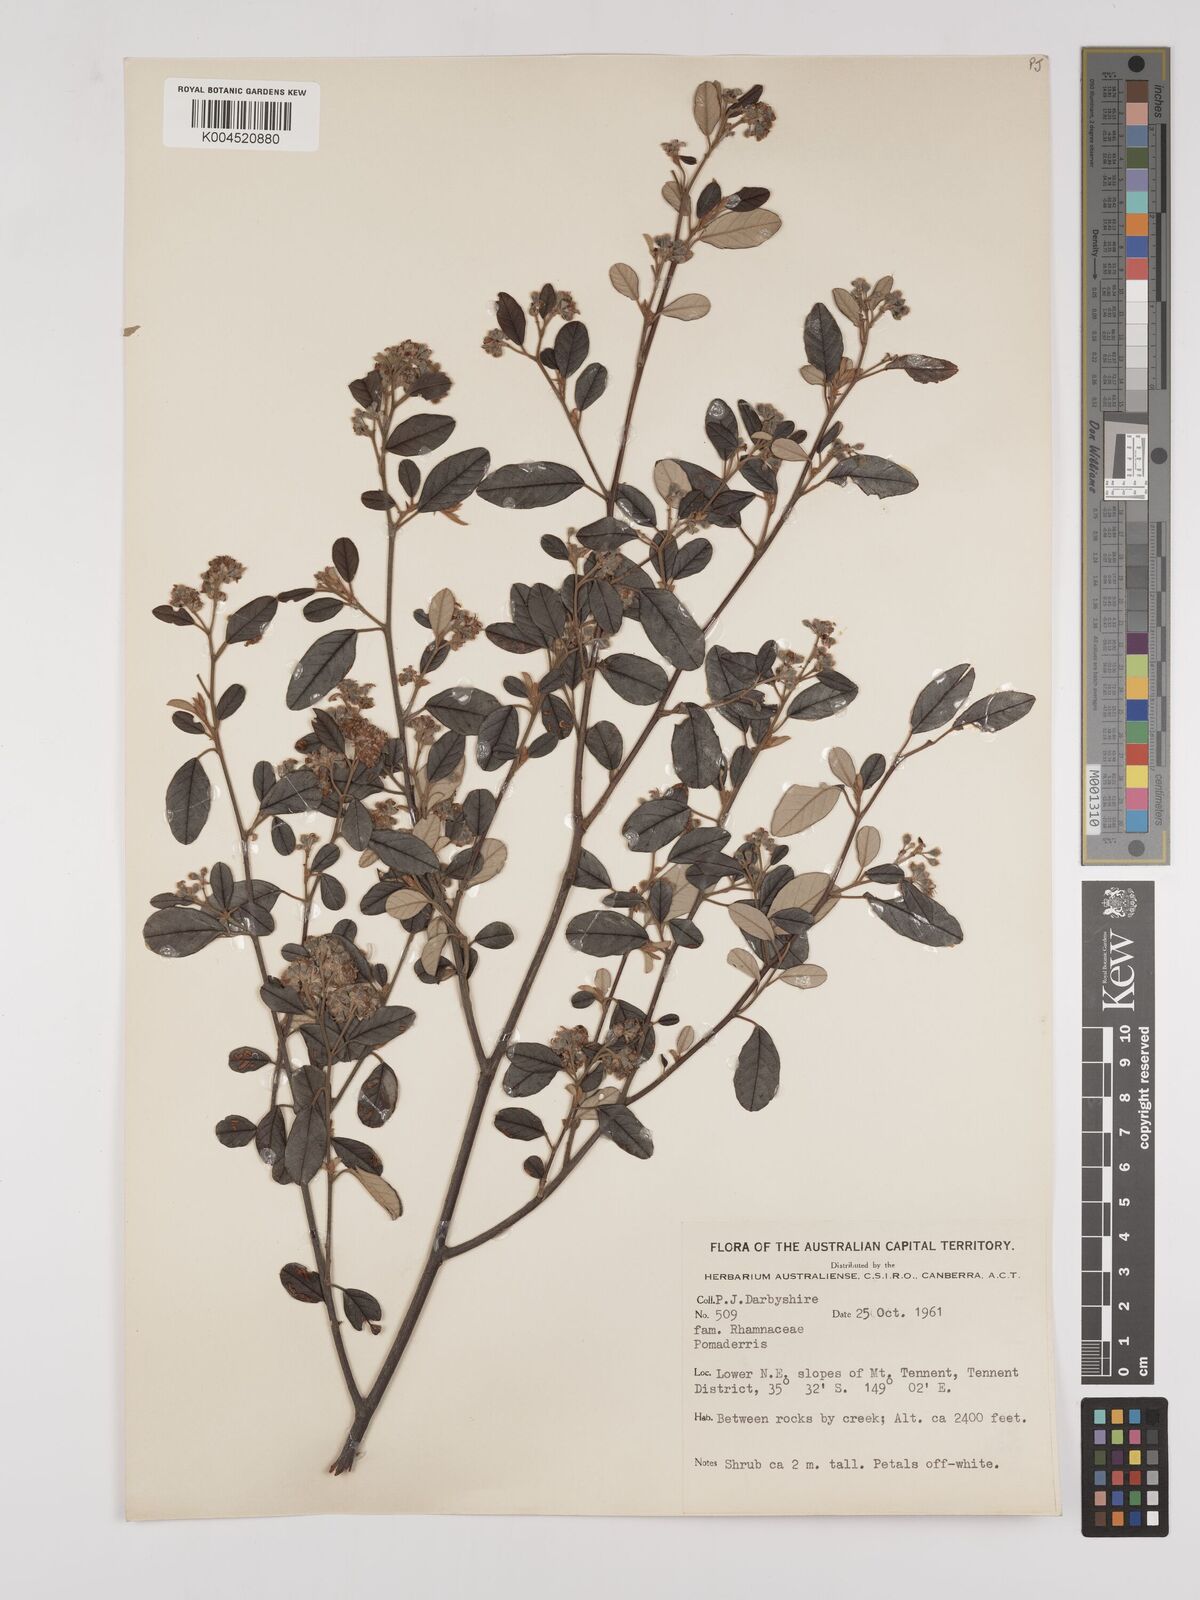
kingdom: Plantae
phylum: Tracheophyta
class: Magnoliopsida
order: Rosales
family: Rhamnaceae
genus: Pomaderris
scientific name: Pomaderris
